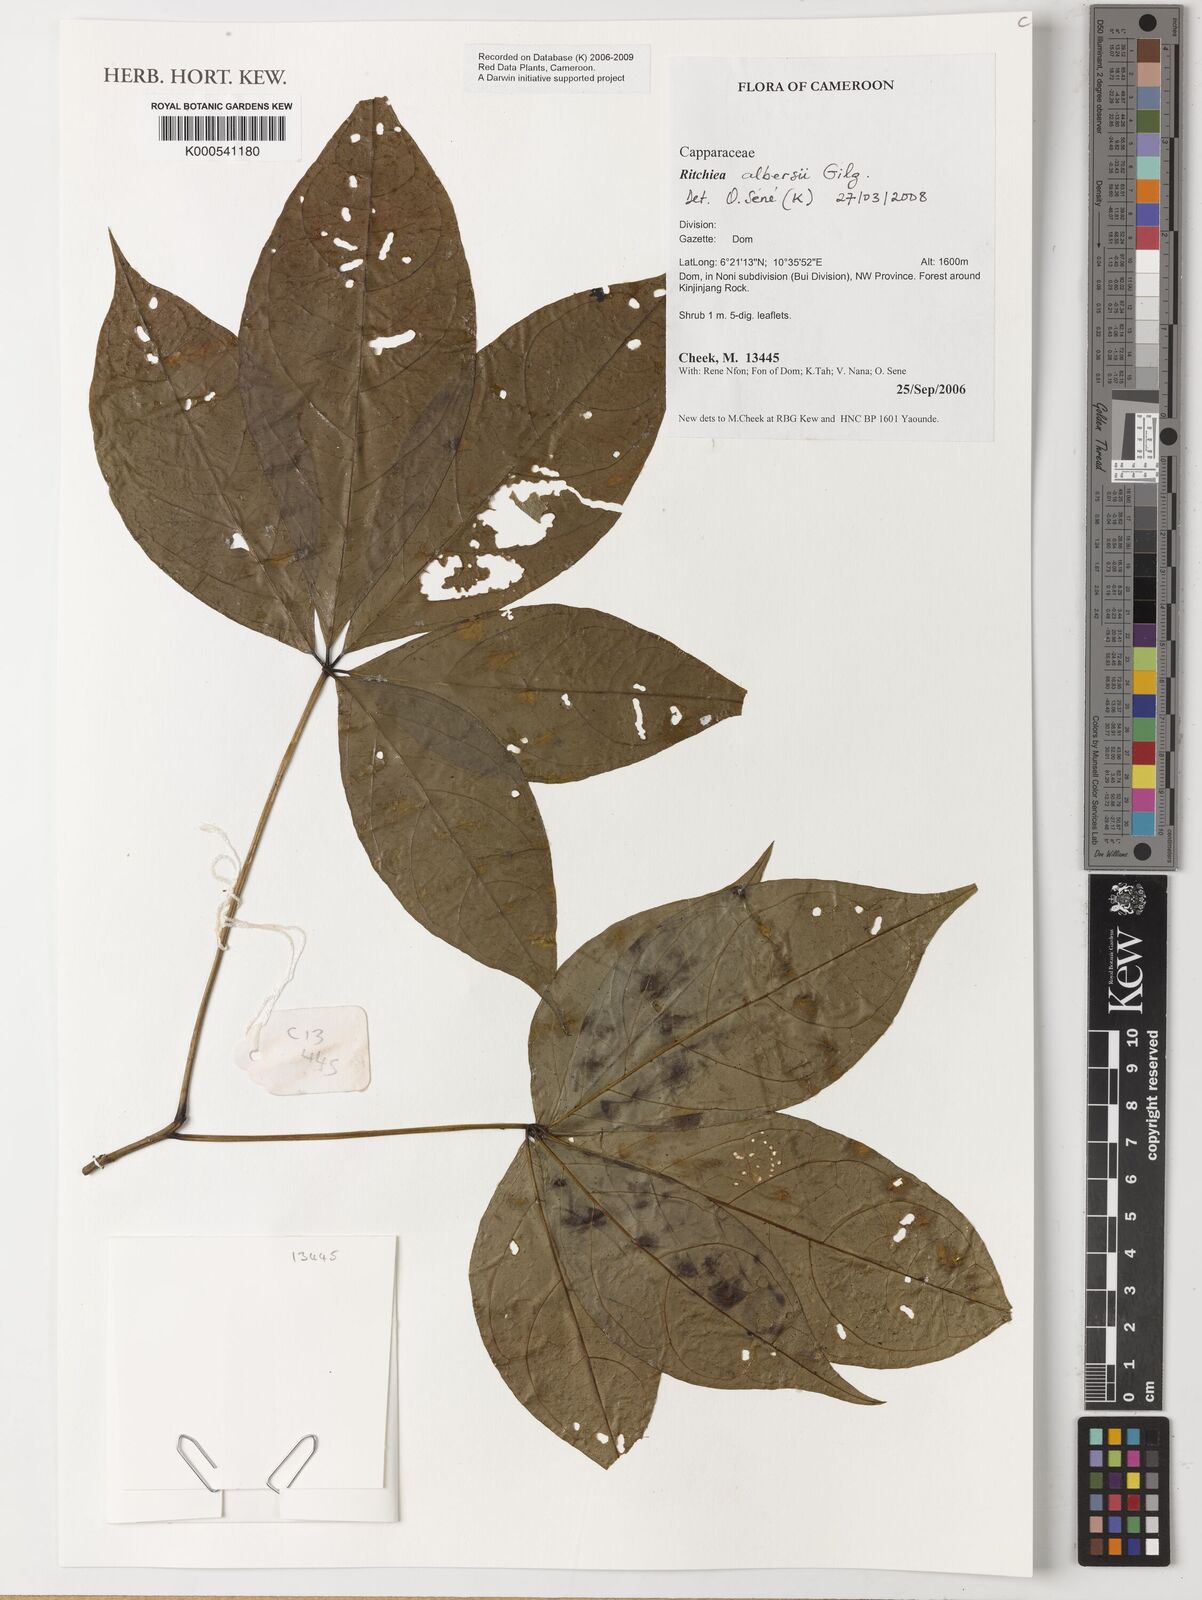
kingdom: Plantae
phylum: Tracheophyta
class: Magnoliopsida
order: Brassicales
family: Capparaceae
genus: Ritchiea
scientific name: Ritchiea albersii
